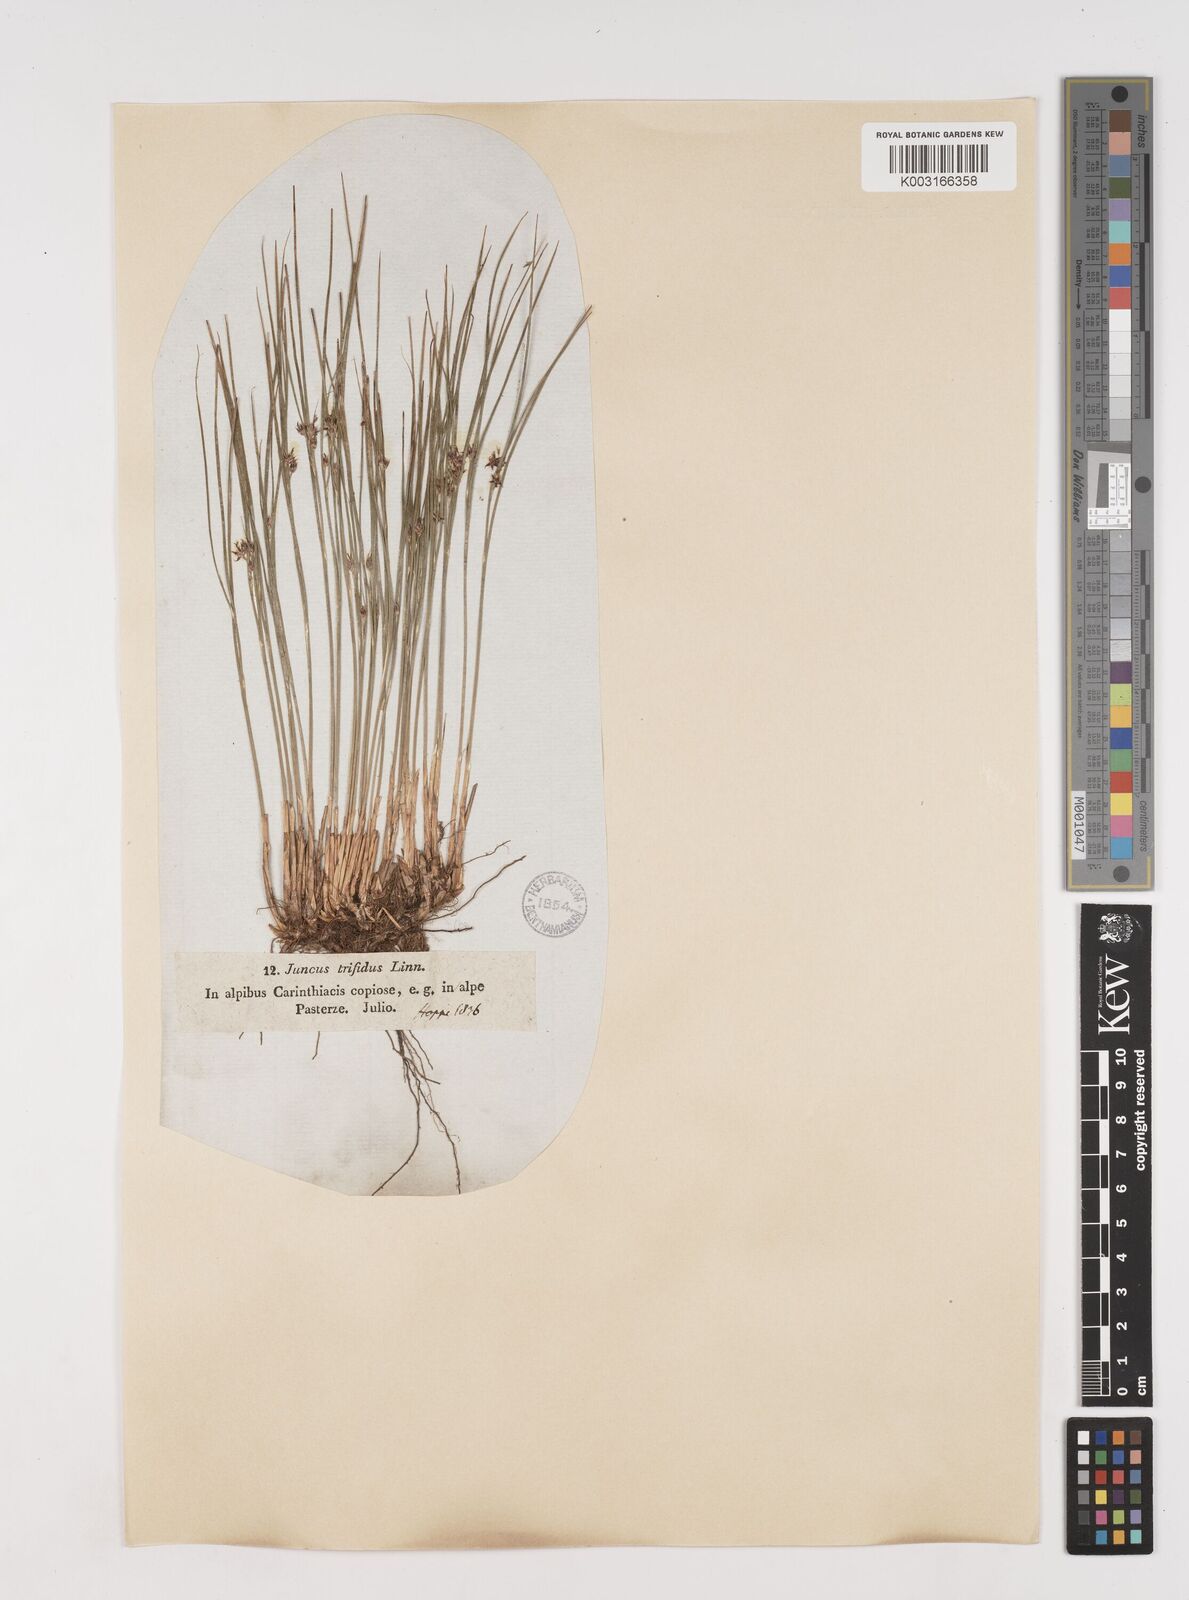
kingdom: Plantae
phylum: Tracheophyta
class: Liliopsida
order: Poales
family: Juncaceae
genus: Oreojuncus
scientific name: Oreojuncus trifidus
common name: Highland rush
